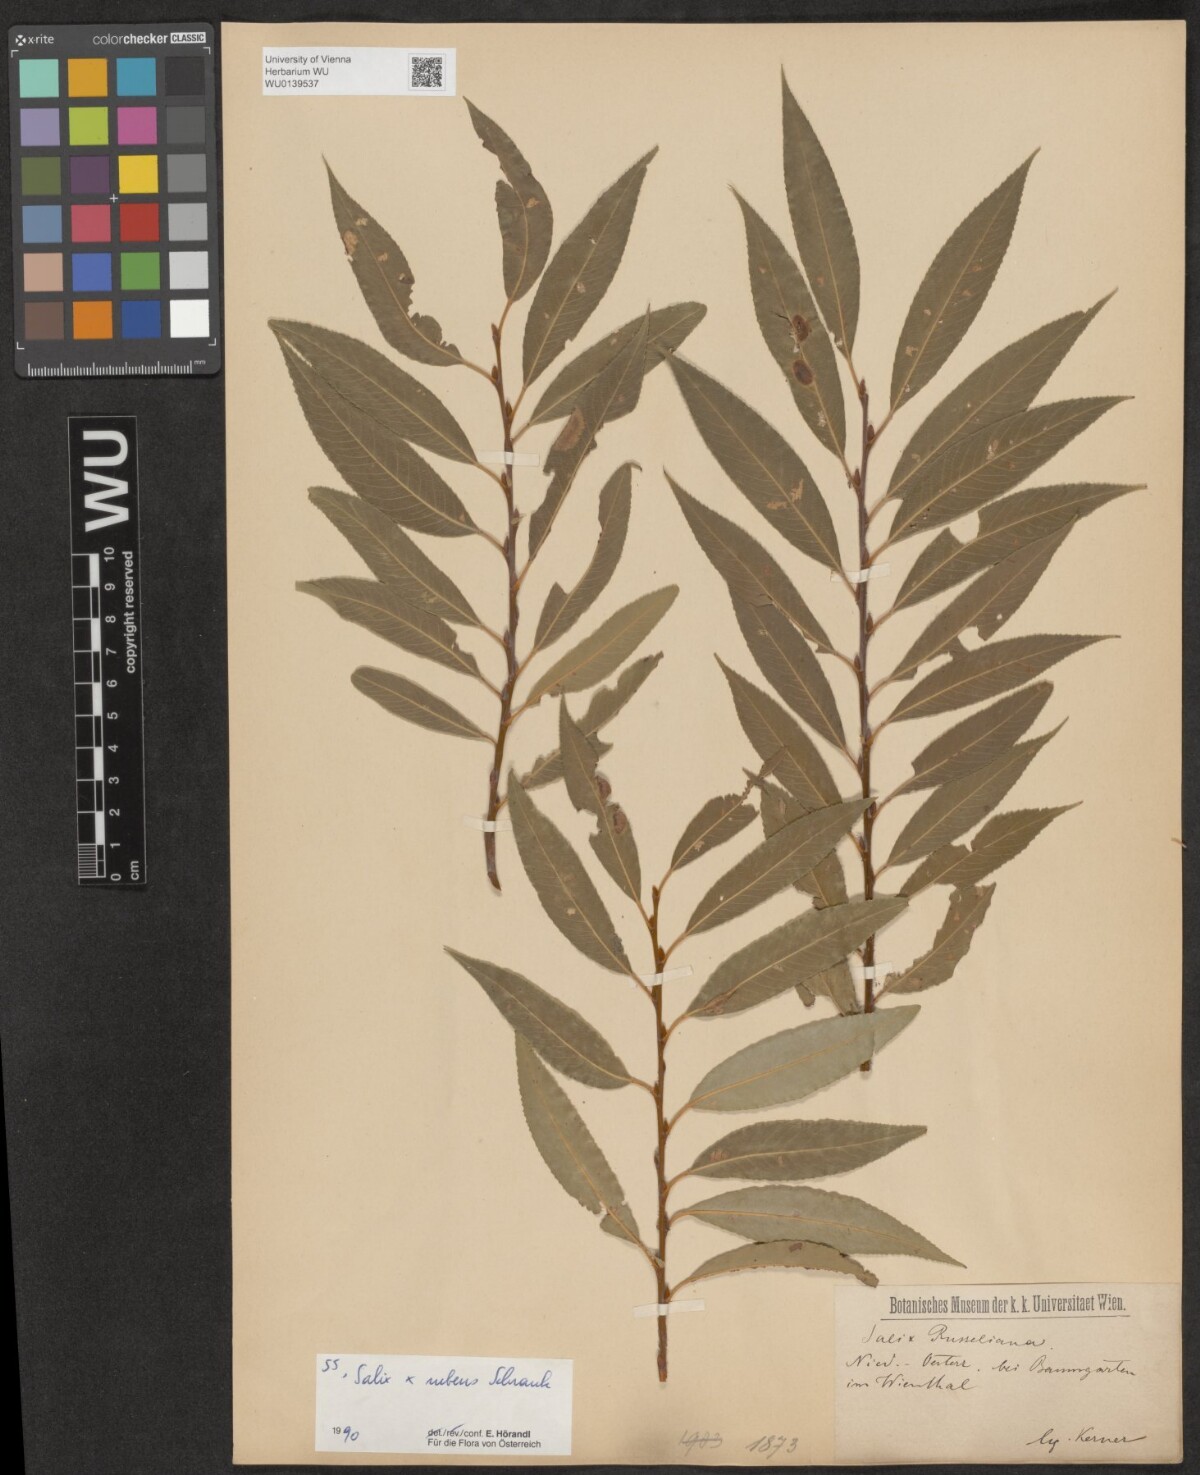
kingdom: Plantae
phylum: Tracheophyta
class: Magnoliopsida
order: Malpighiales
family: Salicaceae
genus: Salix
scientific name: Salix rubens
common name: Hybrid crack willow
